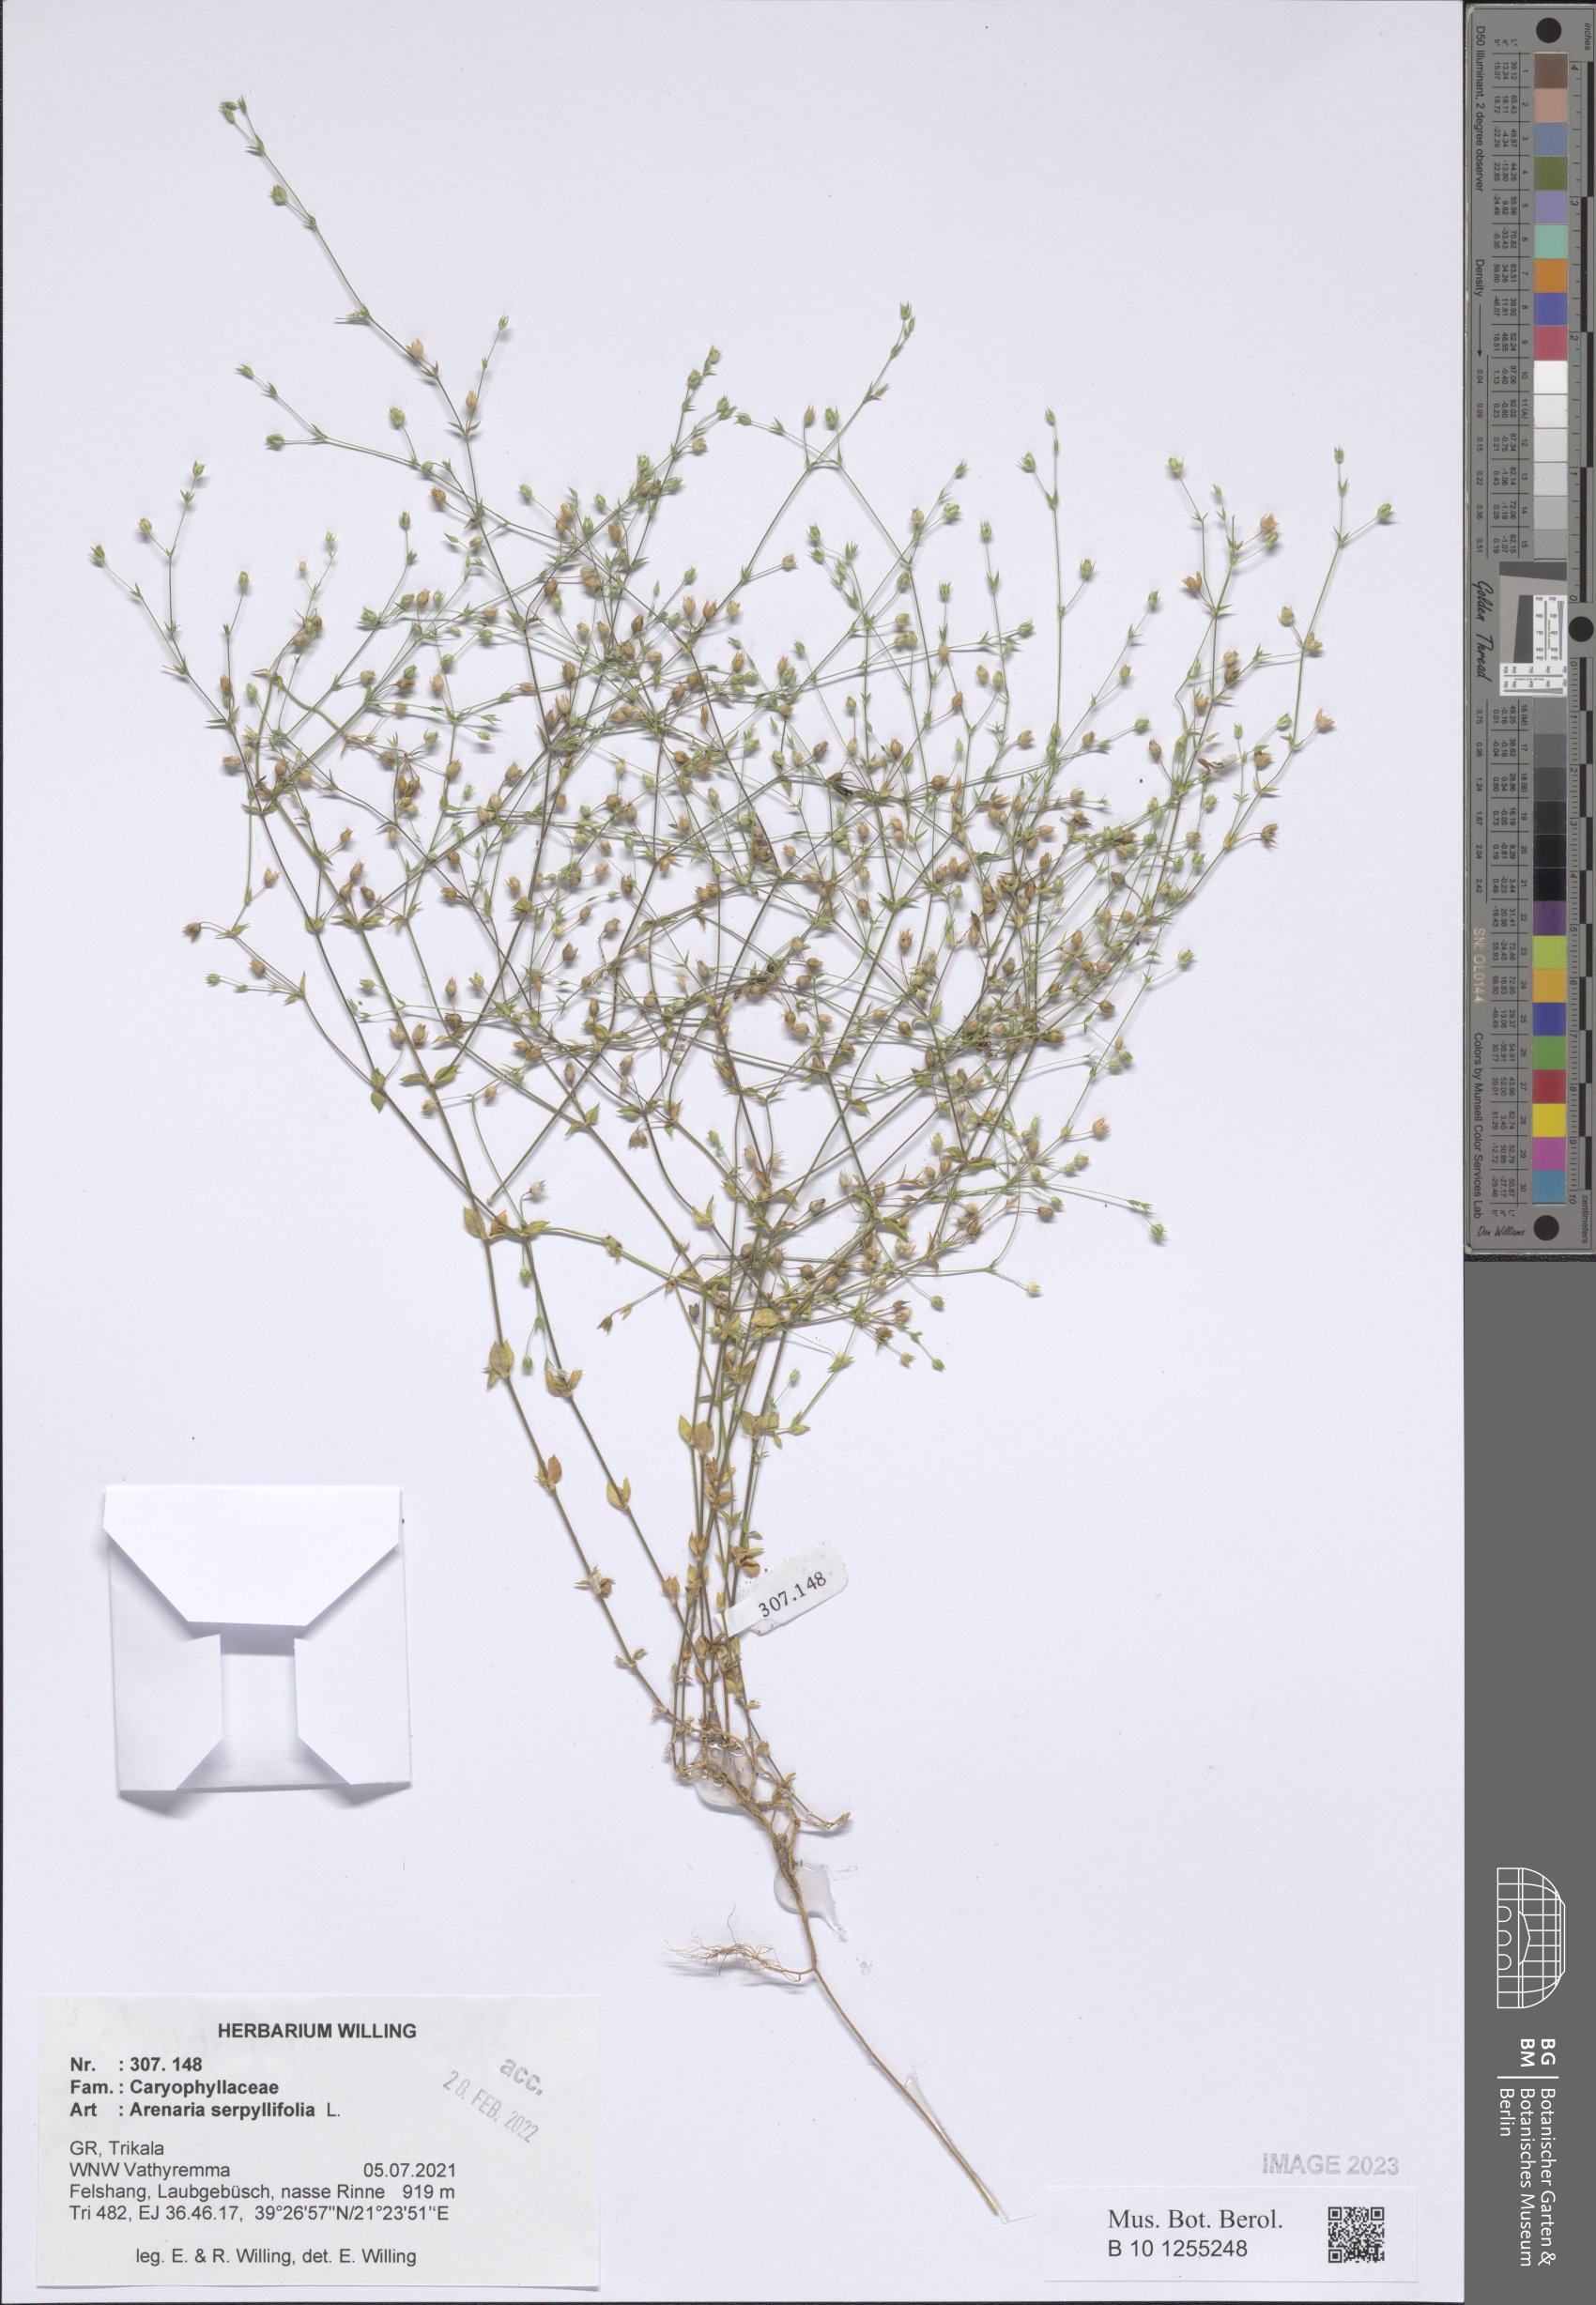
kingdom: Plantae
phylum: Tracheophyta
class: Magnoliopsida
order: Caryophyllales
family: Caryophyllaceae
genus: Arenaria
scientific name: Arenaria serpyllifolia
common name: Thyme-leaved sandwort
